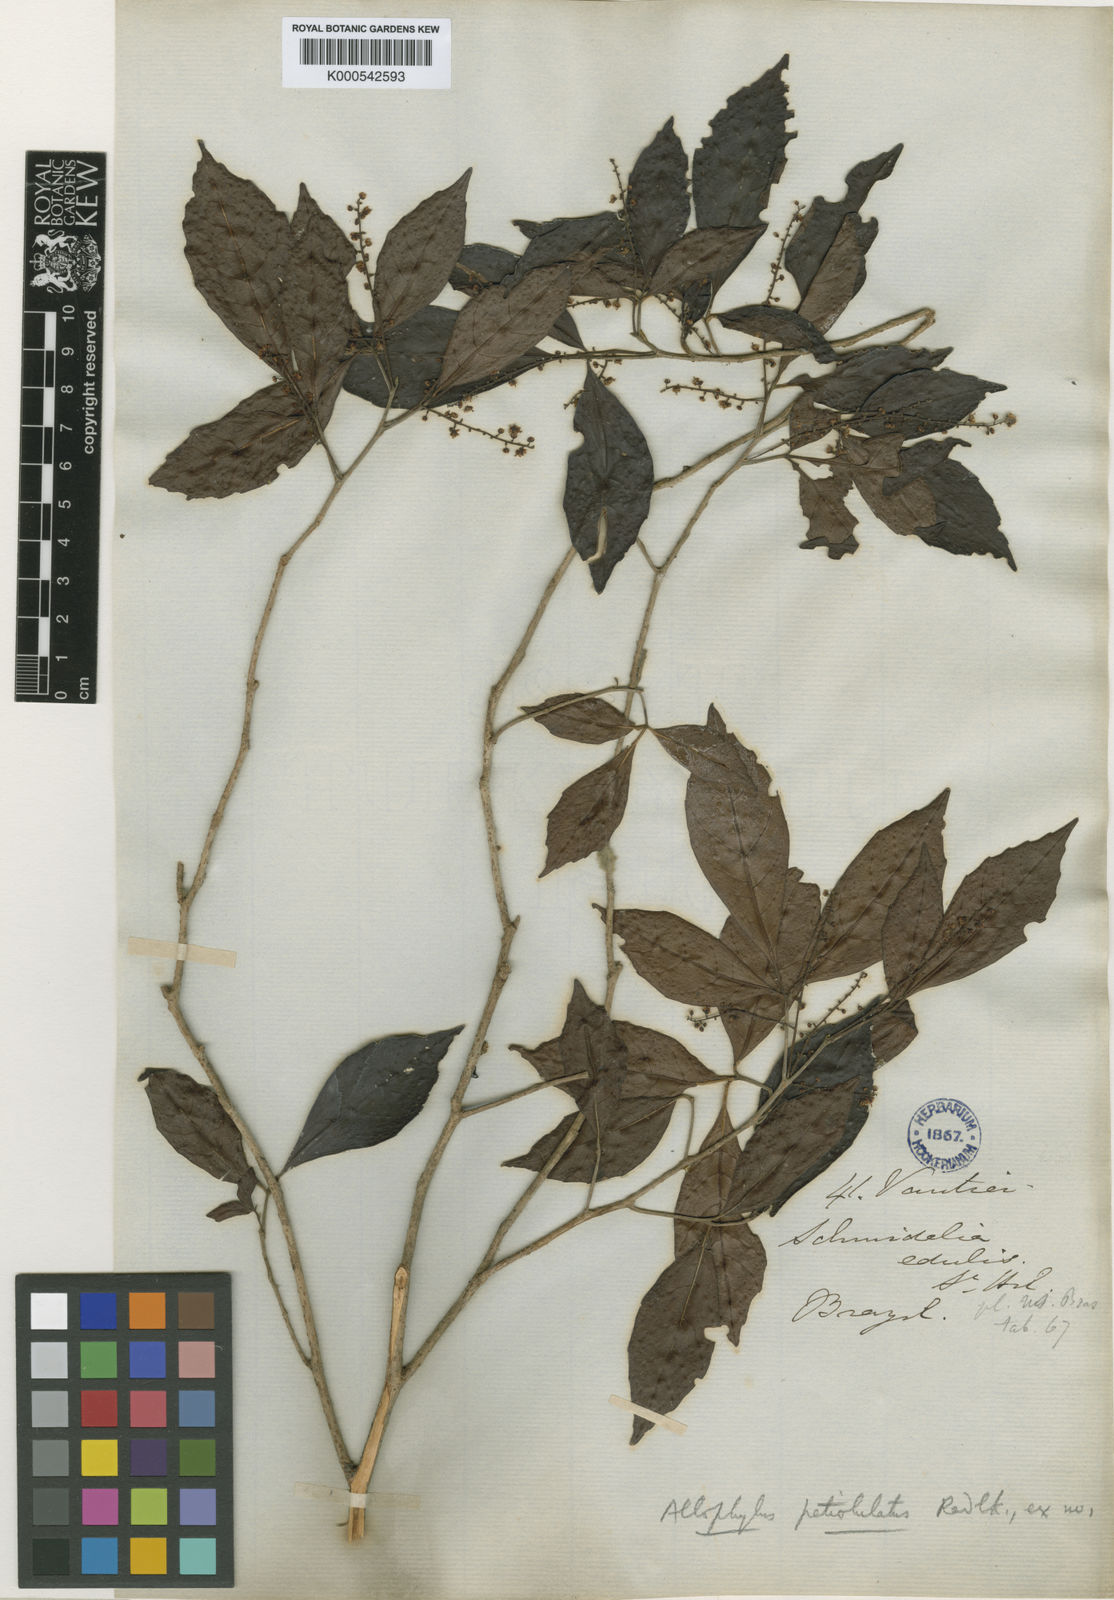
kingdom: Plantae
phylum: Tracheophyta
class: Magnoliopsida
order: Sapindales
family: Sapindaceae
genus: Allophylus
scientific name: Allophylus petiolulatus
